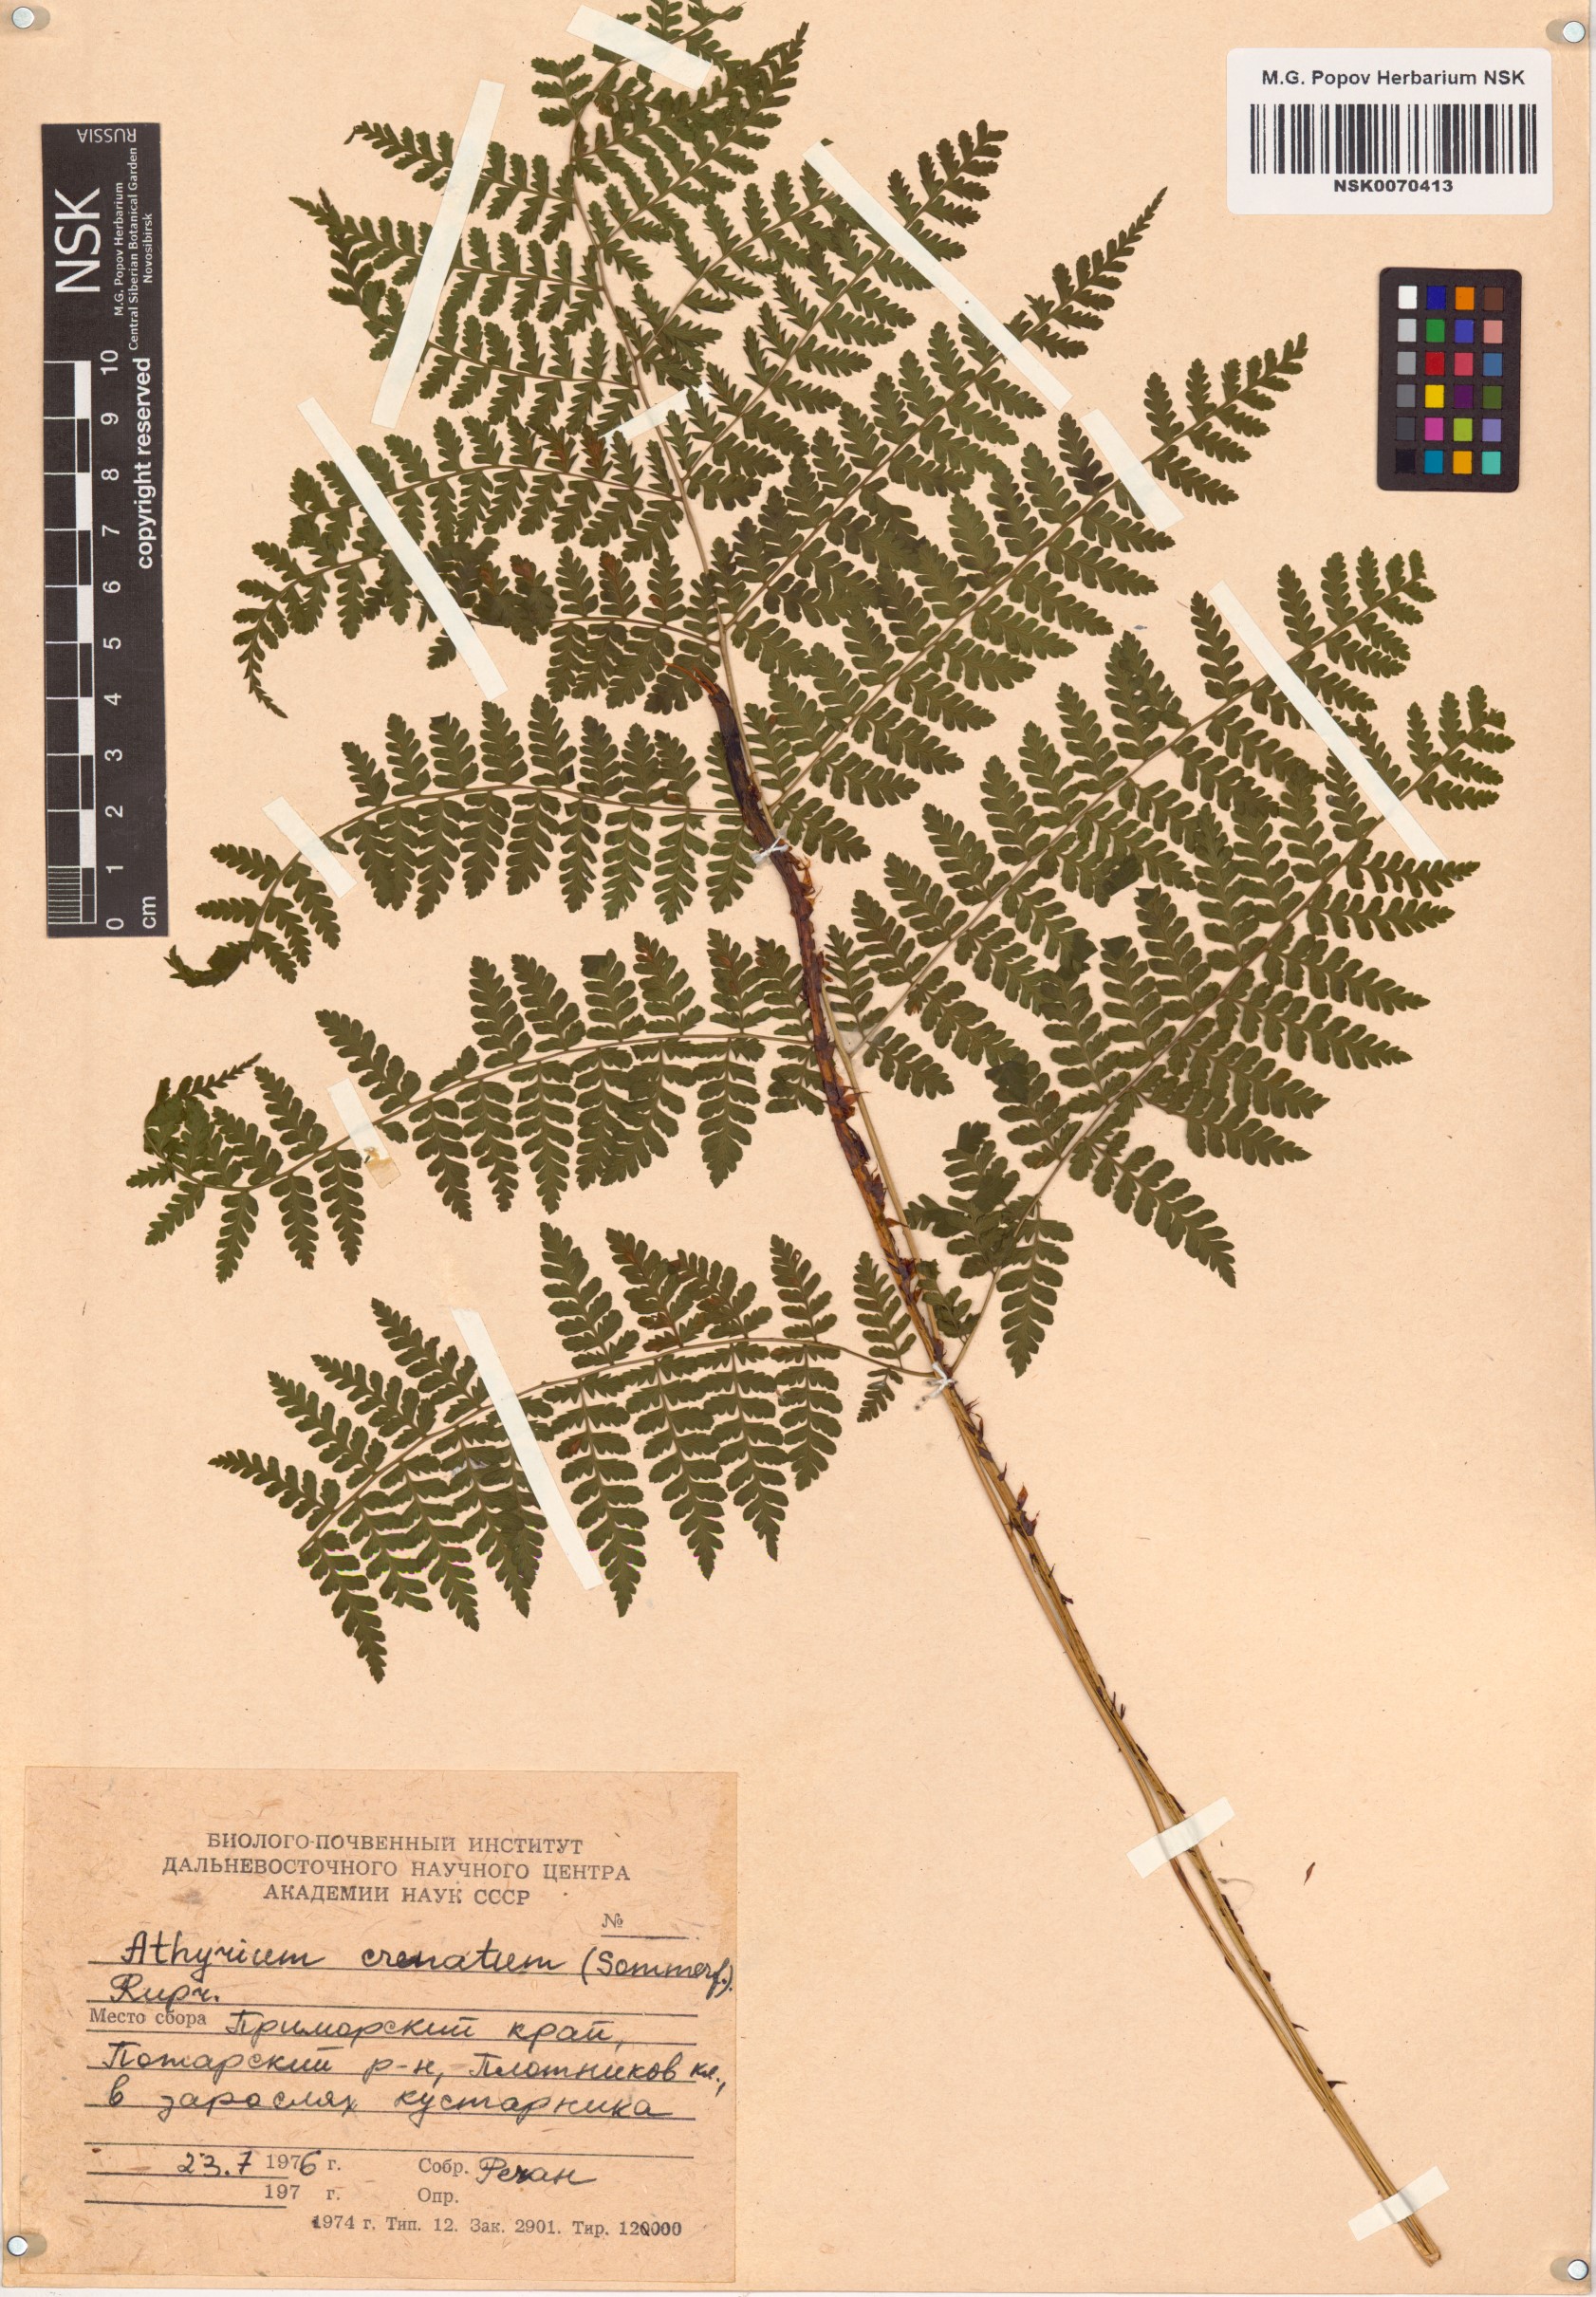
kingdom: Plantae
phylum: Tracheophyta
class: Polypodiopsida
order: Polypodiales
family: Athyriaceae
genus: Diplazium
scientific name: Diplazium sibiricum
